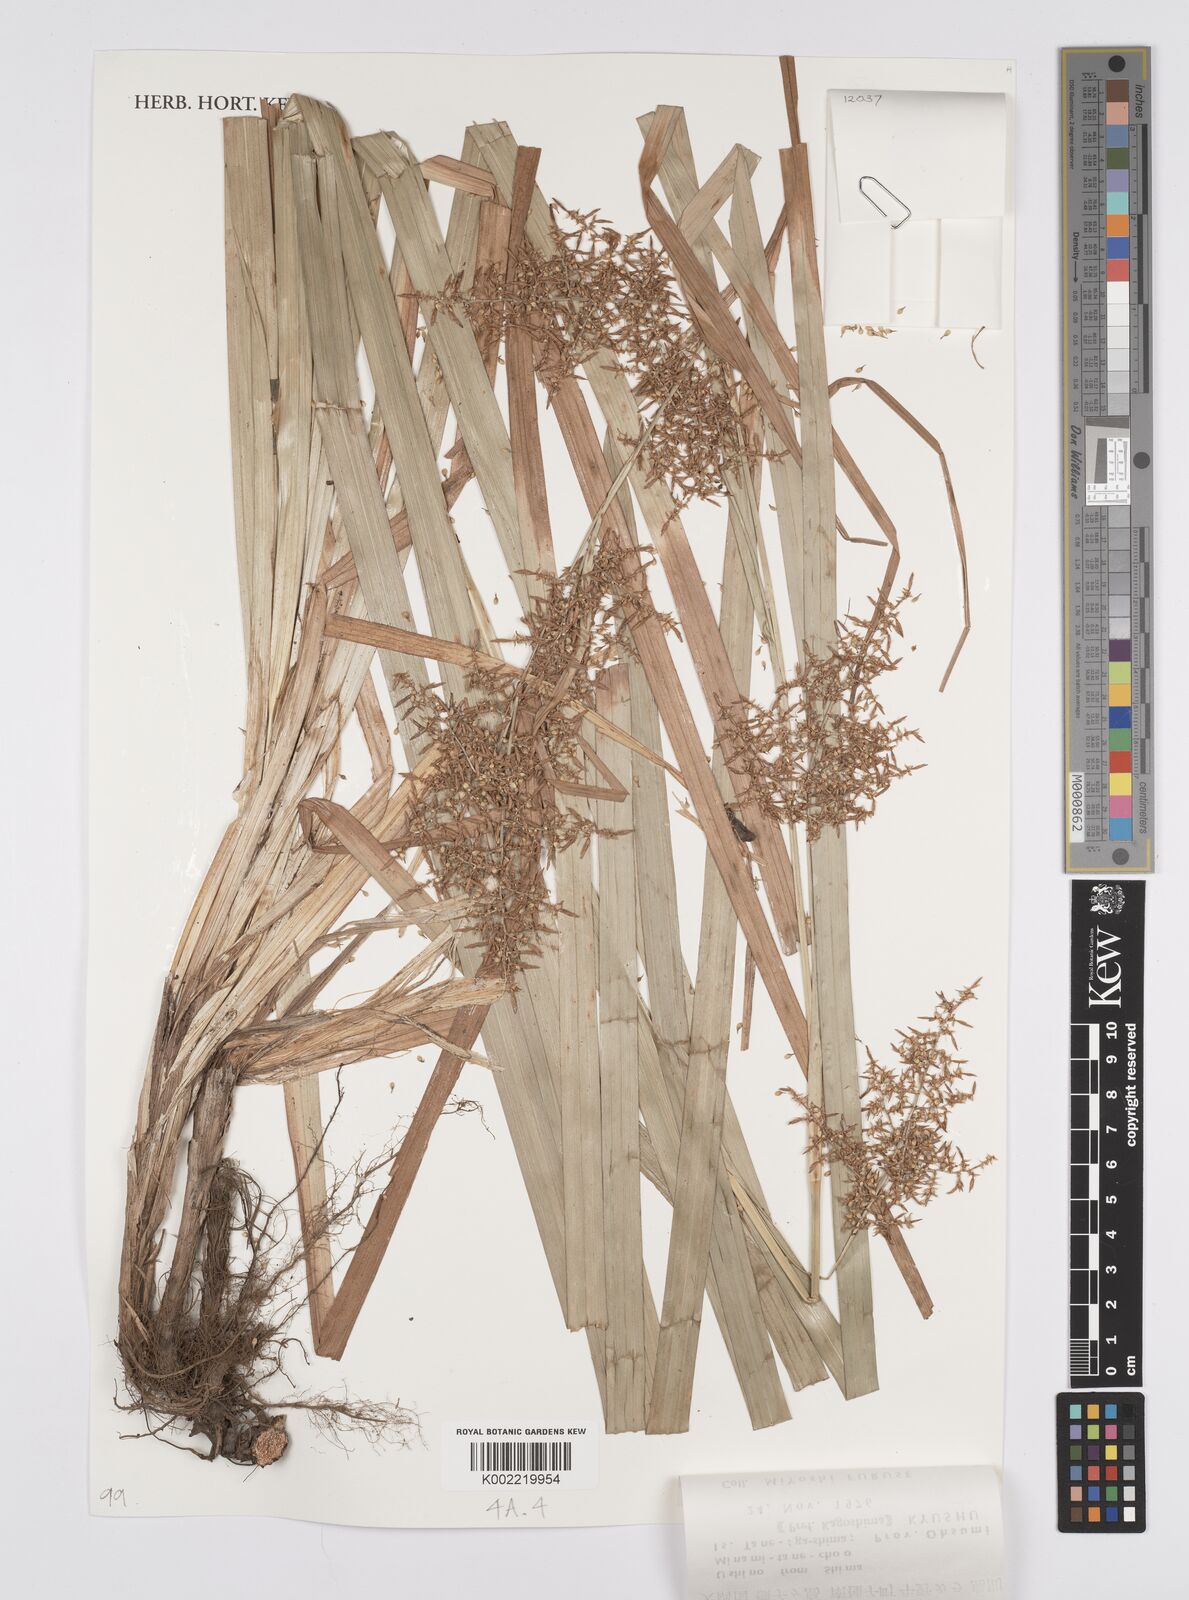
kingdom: Plantae
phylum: Tracheophyta
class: Liliopsida
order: Poales
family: Cyperaceae
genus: Carex
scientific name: Carex cruciata
